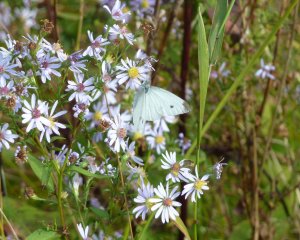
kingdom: Animalia
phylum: Arthropoda
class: Insecta
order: Lepidoptera
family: Pieridae
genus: Pieris
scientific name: Pieris rapae
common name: Cabbage White
